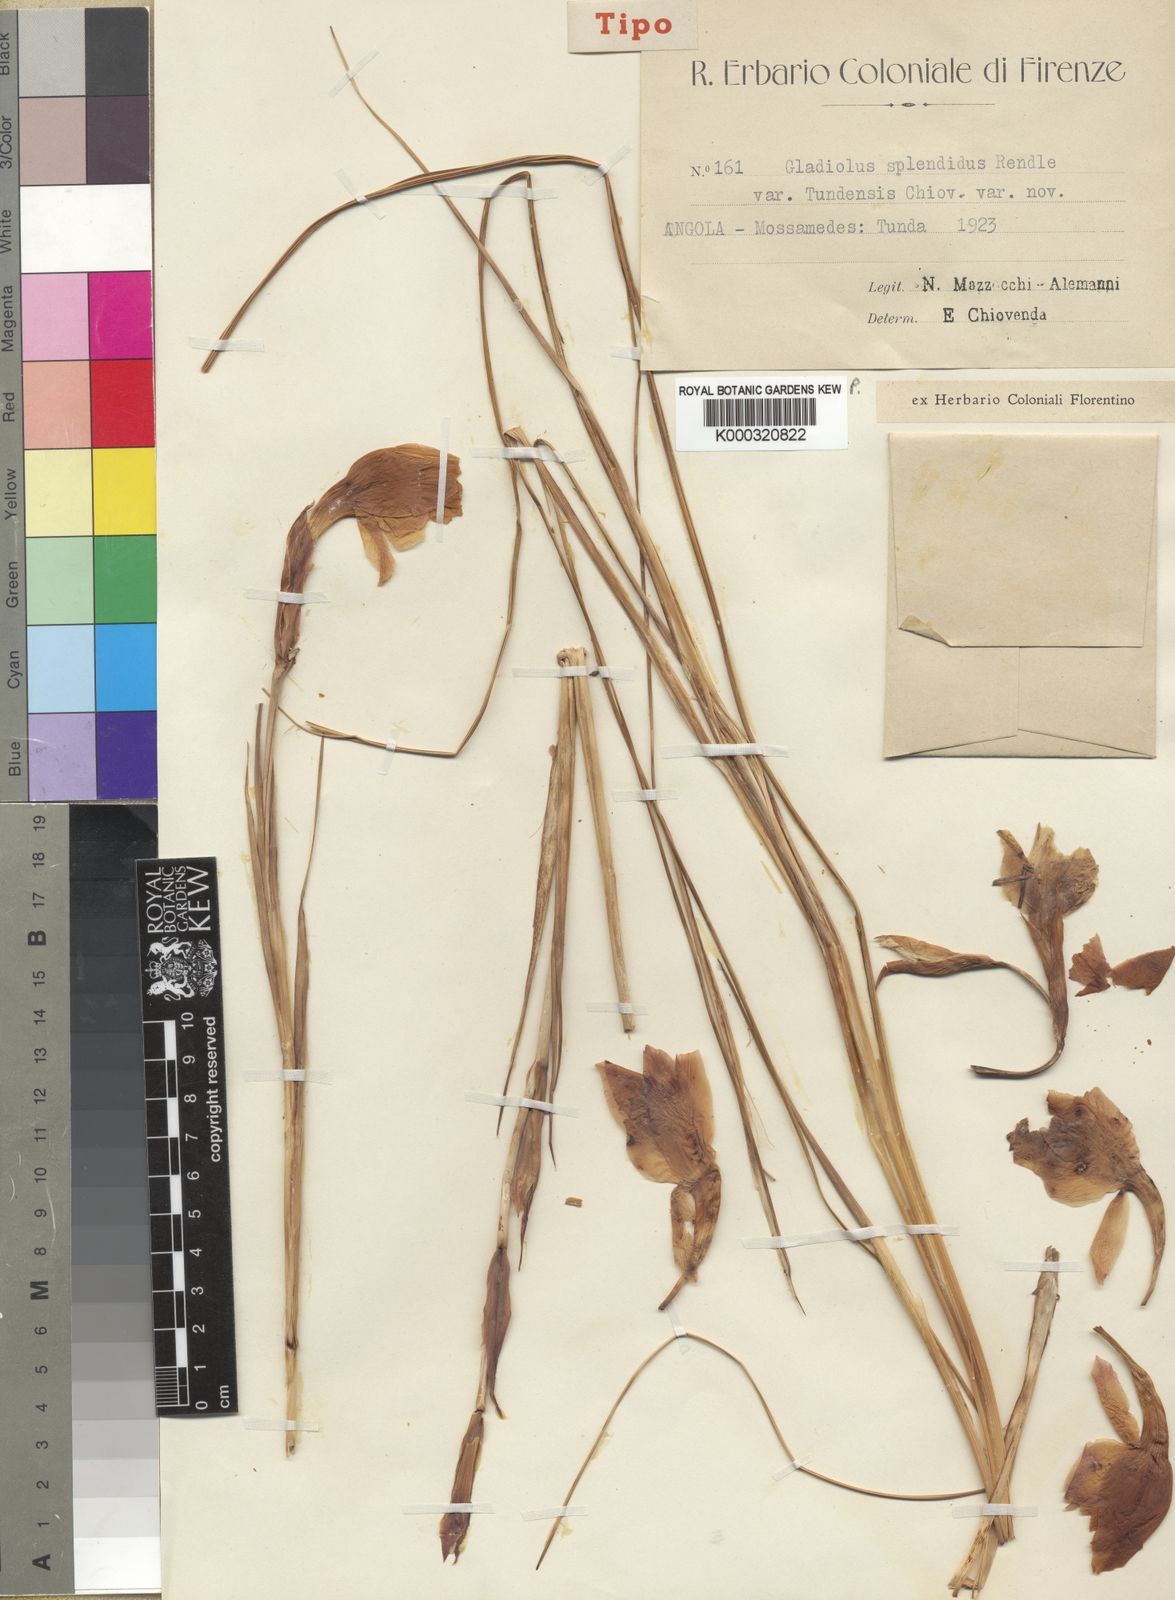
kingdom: Plantae
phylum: Tracheophyta
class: Liliopsida
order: Asparagales
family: Iridaceae
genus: Gladiolus
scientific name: Gladiolus baumii
